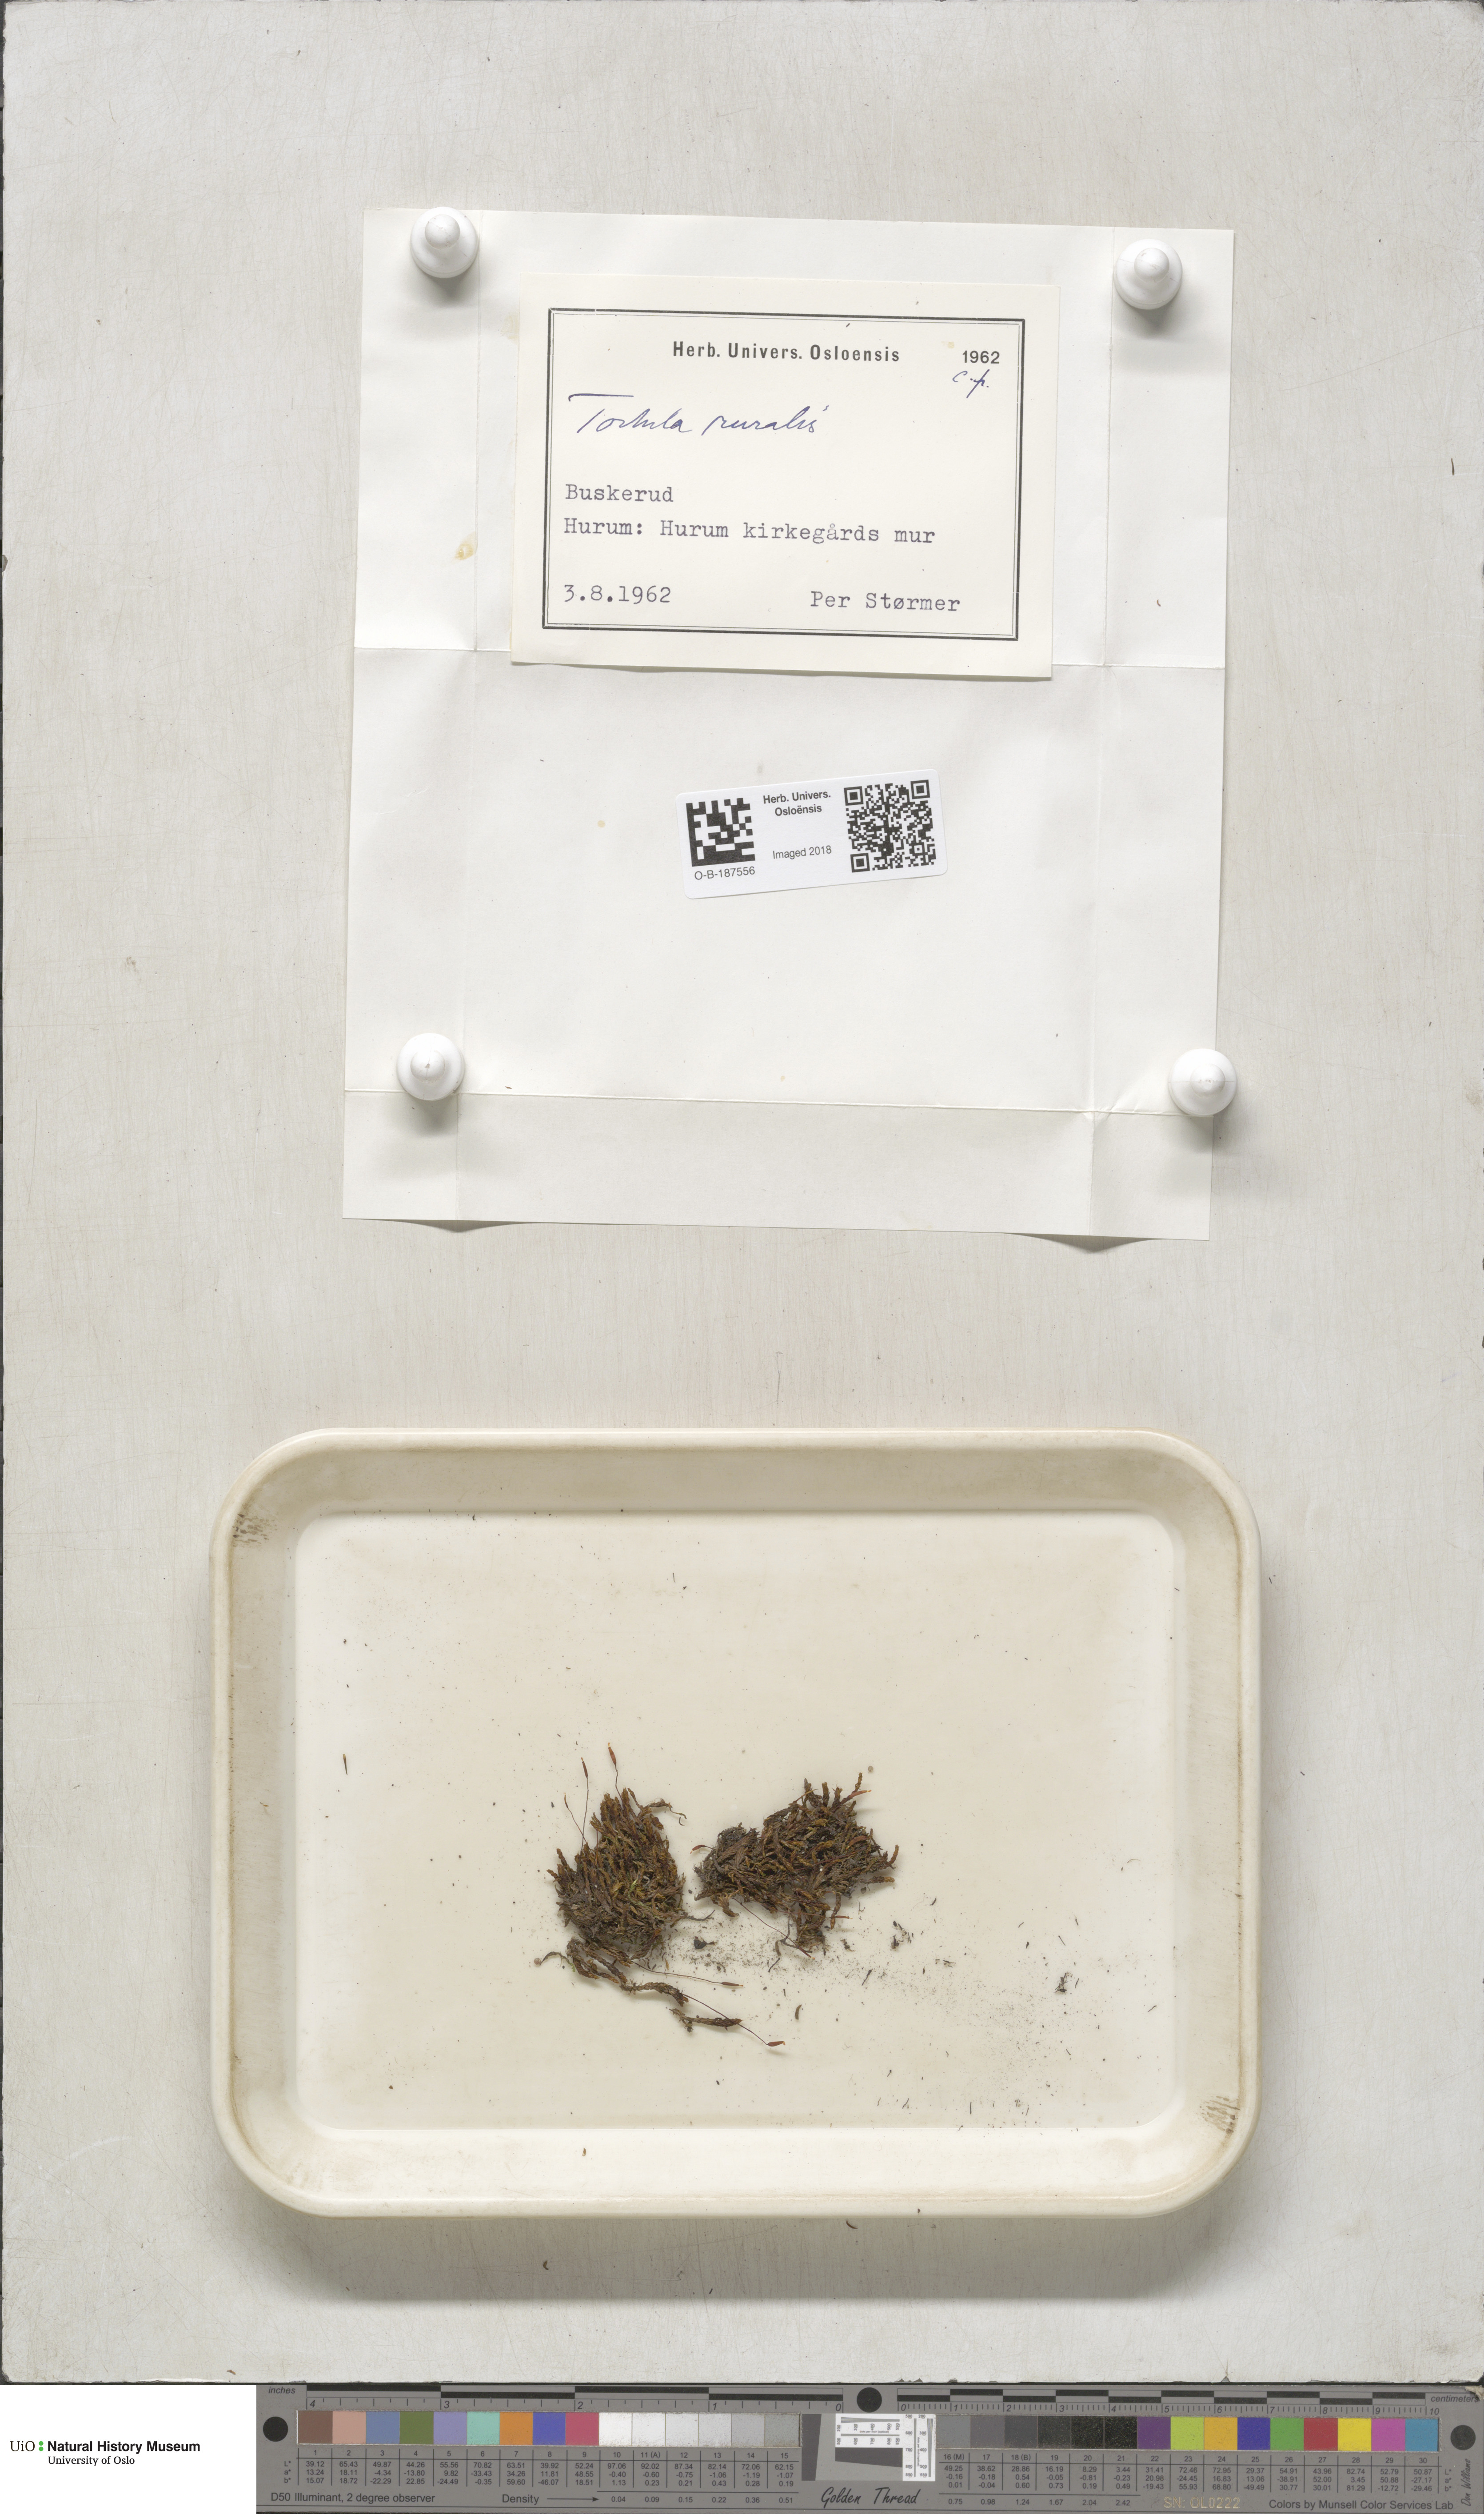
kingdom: Plantae
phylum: Bryophyta
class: Bryopsida
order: Pottiales
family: Pottiaceae
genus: Syntrichia
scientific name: Syntrichia ruralis
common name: Sidewalk screw moss
